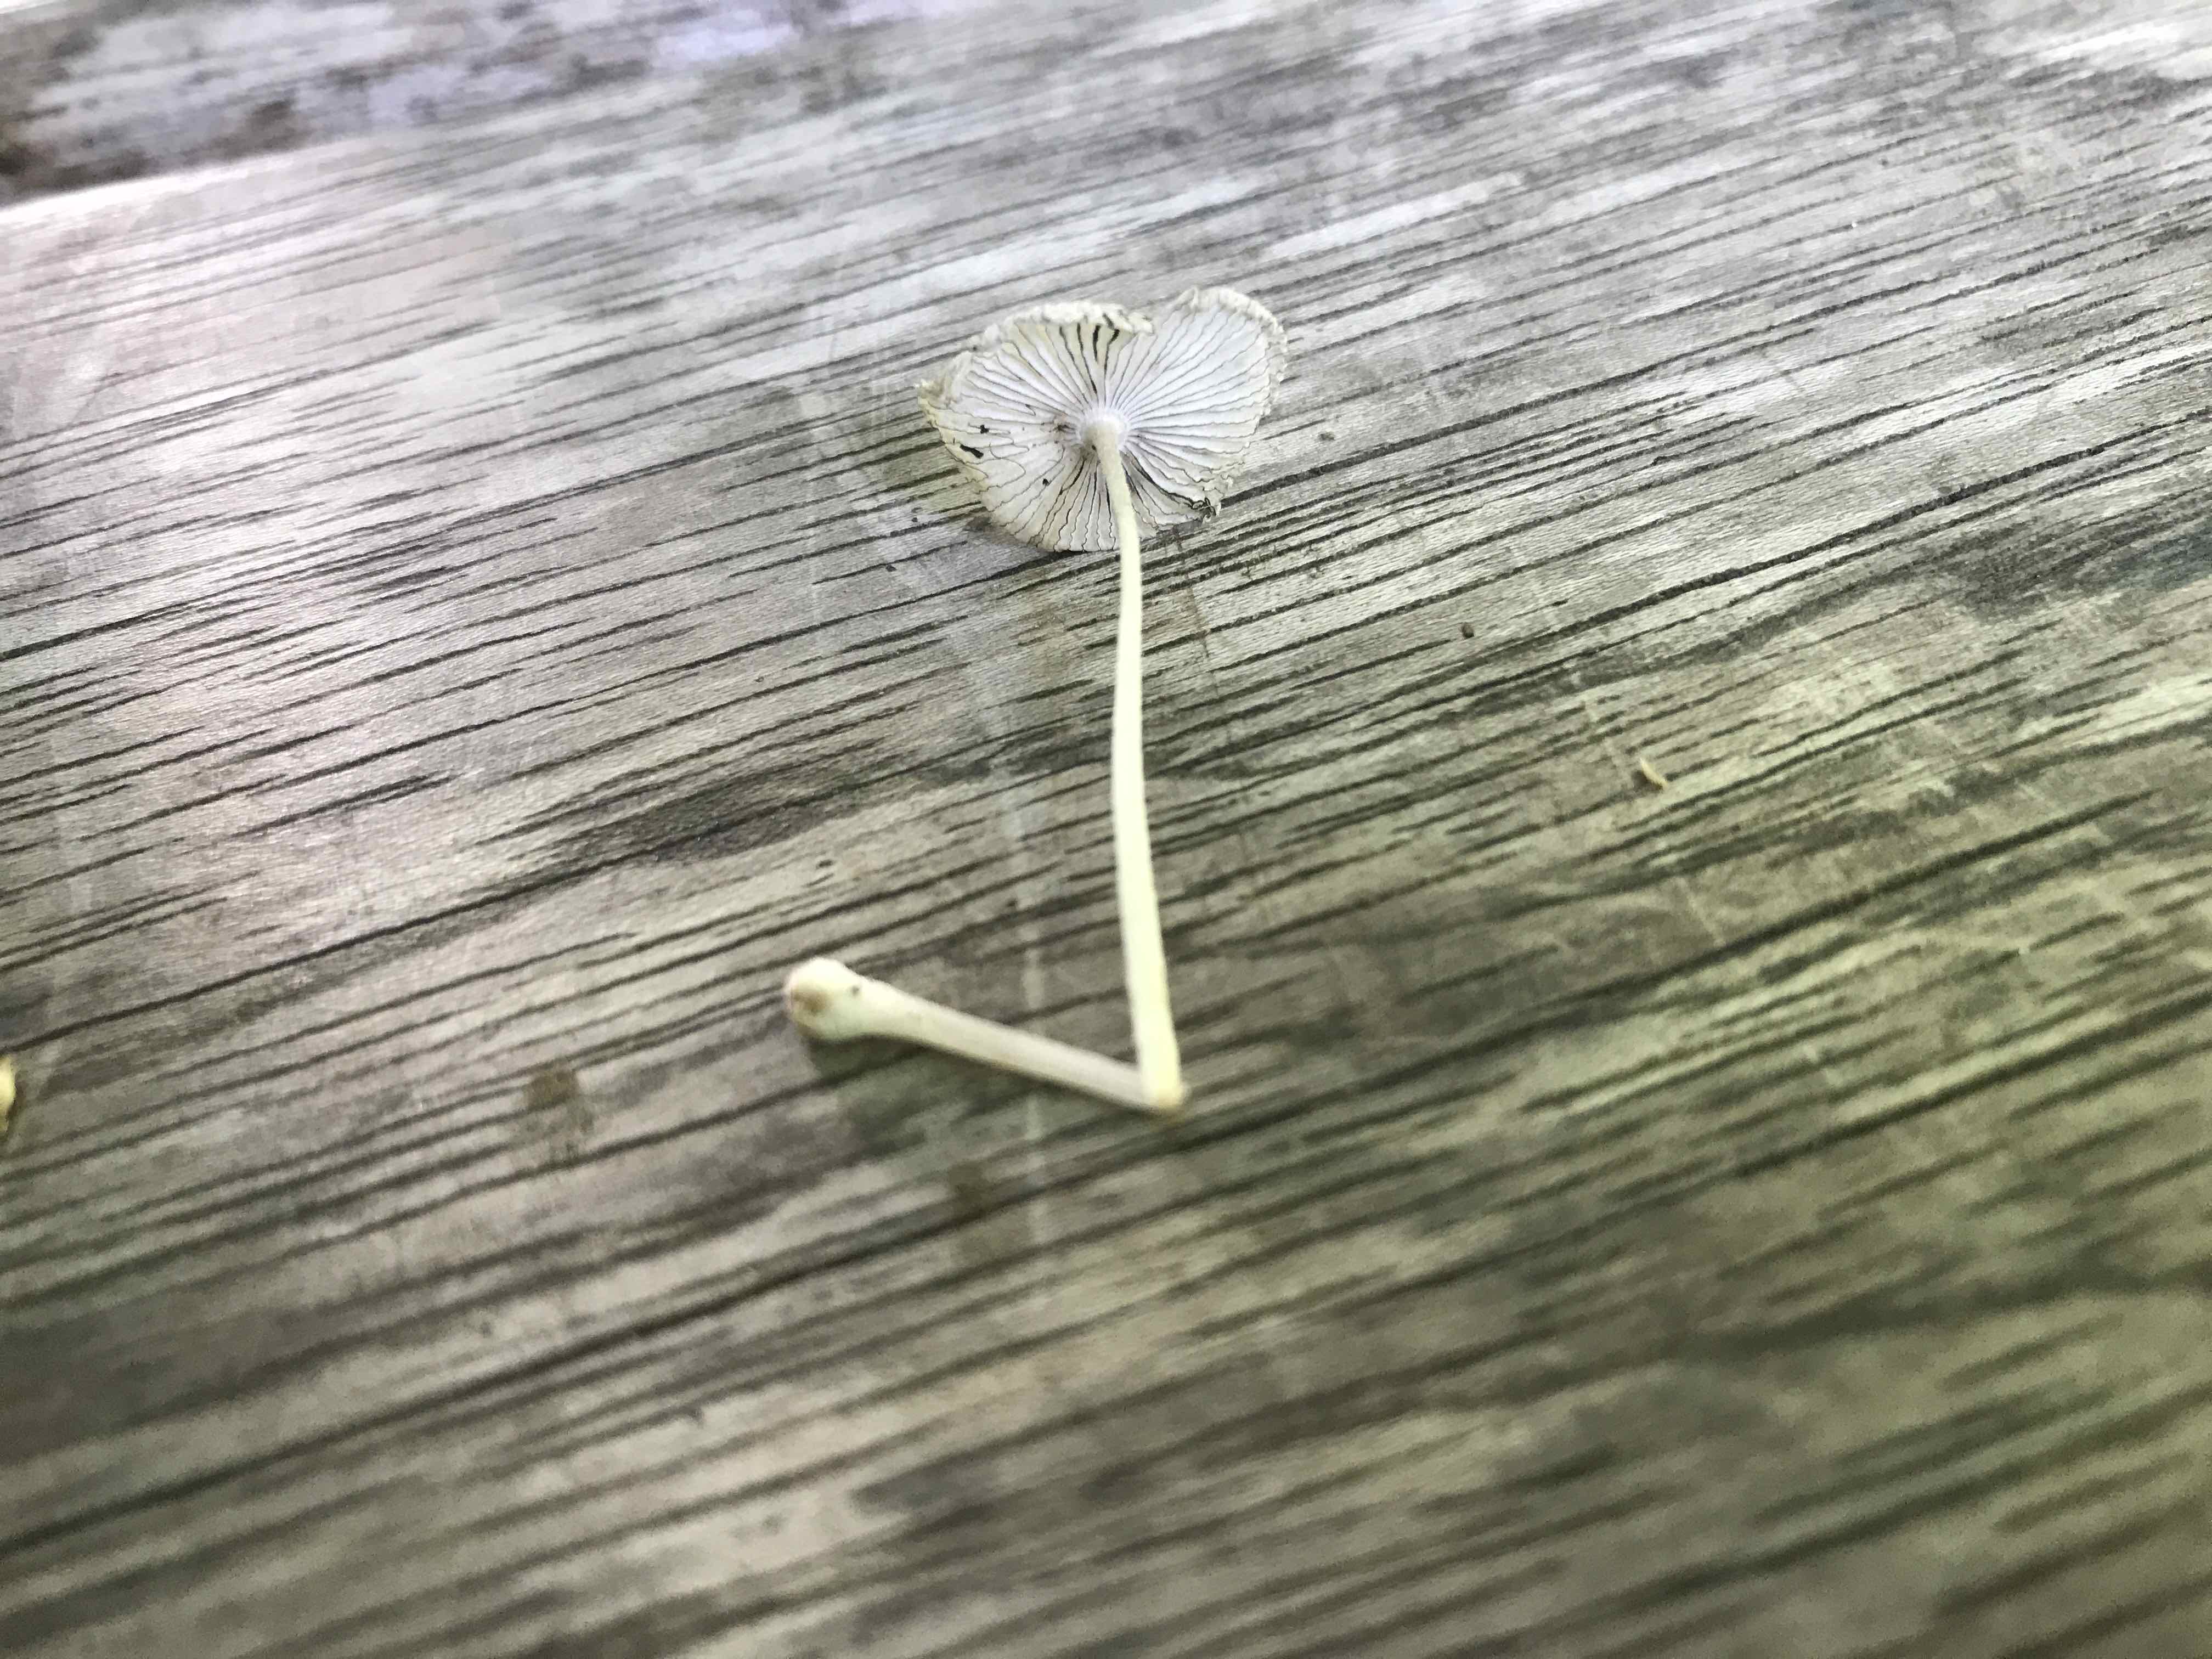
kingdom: Fungi
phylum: Basidiomycota
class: Agaricomycetes
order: Agaricales
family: Psathyrellaceae
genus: Coprinopsis
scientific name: Coprinopsis lagopus
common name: dunstokket blækhat
